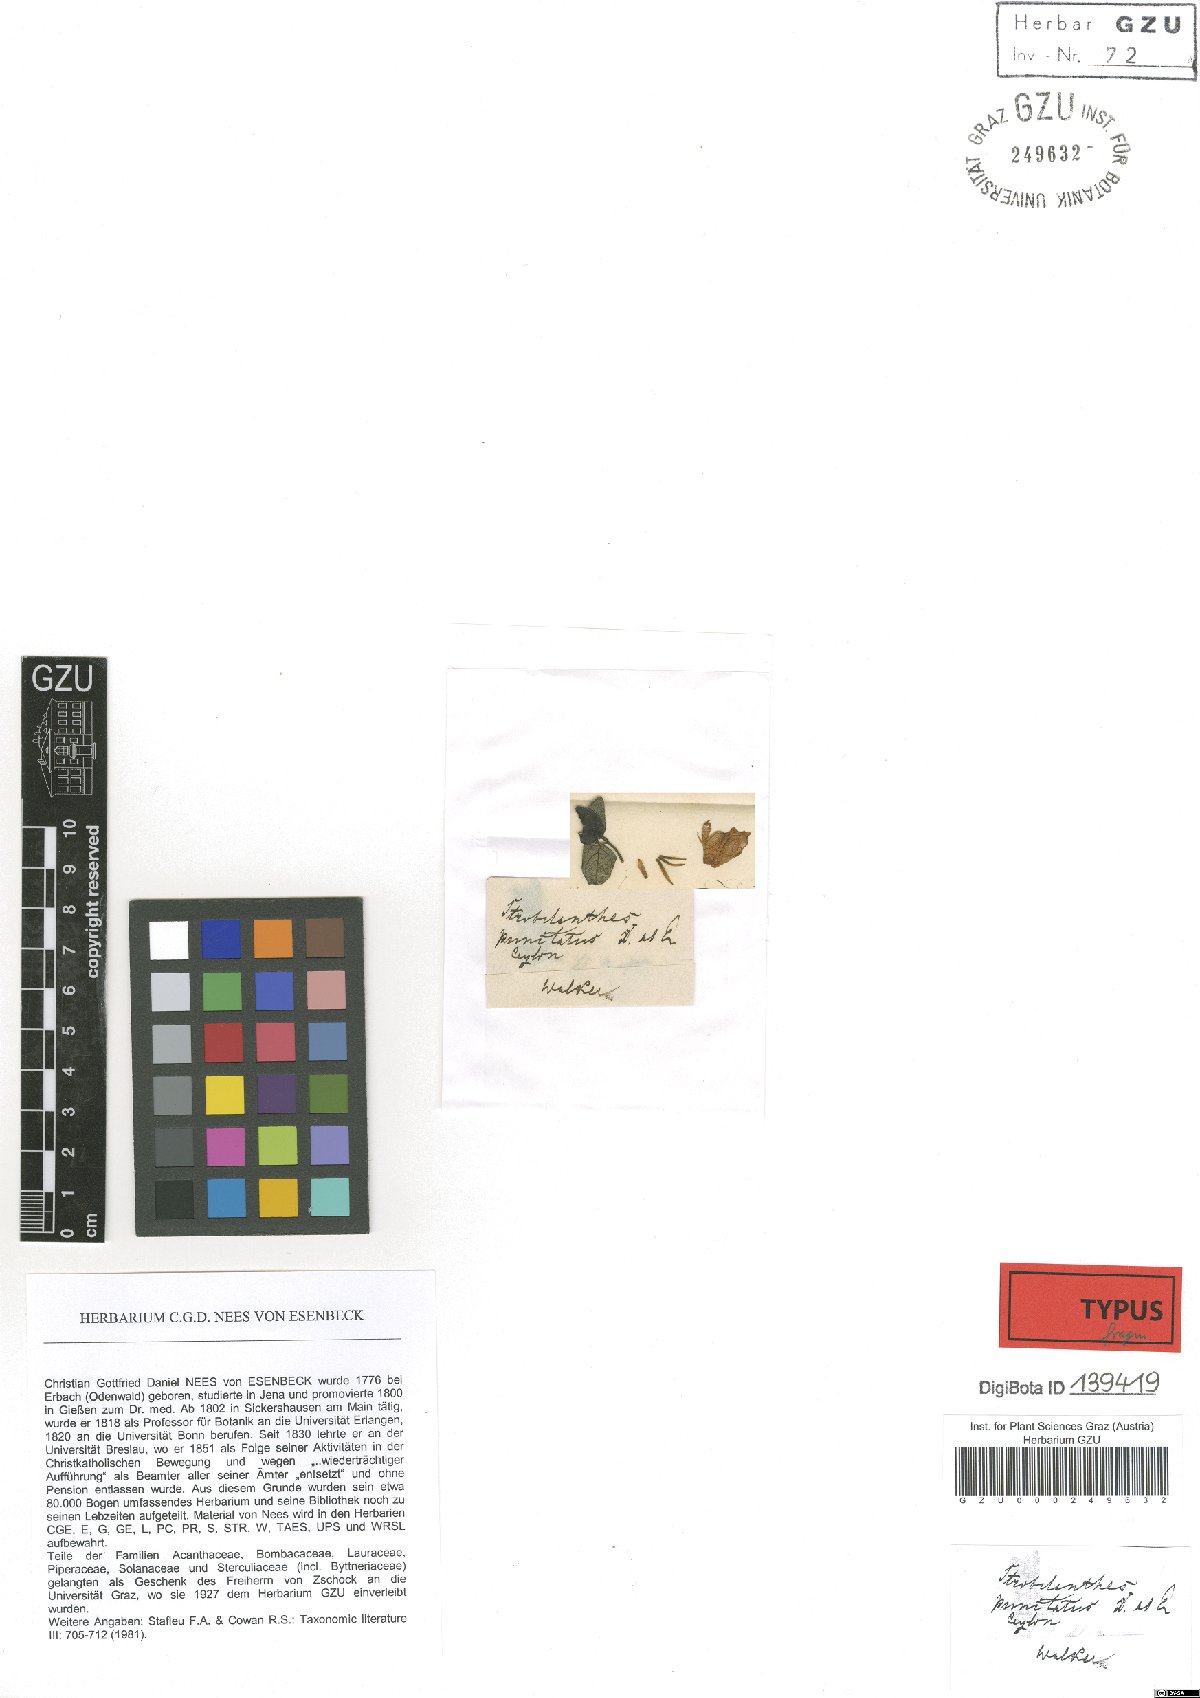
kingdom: Plantae
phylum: Tracheophyta
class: Magnoliopsida
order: Lamiales
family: Acanthaceae
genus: Strobilanthes
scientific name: Strobilanthes punctata
